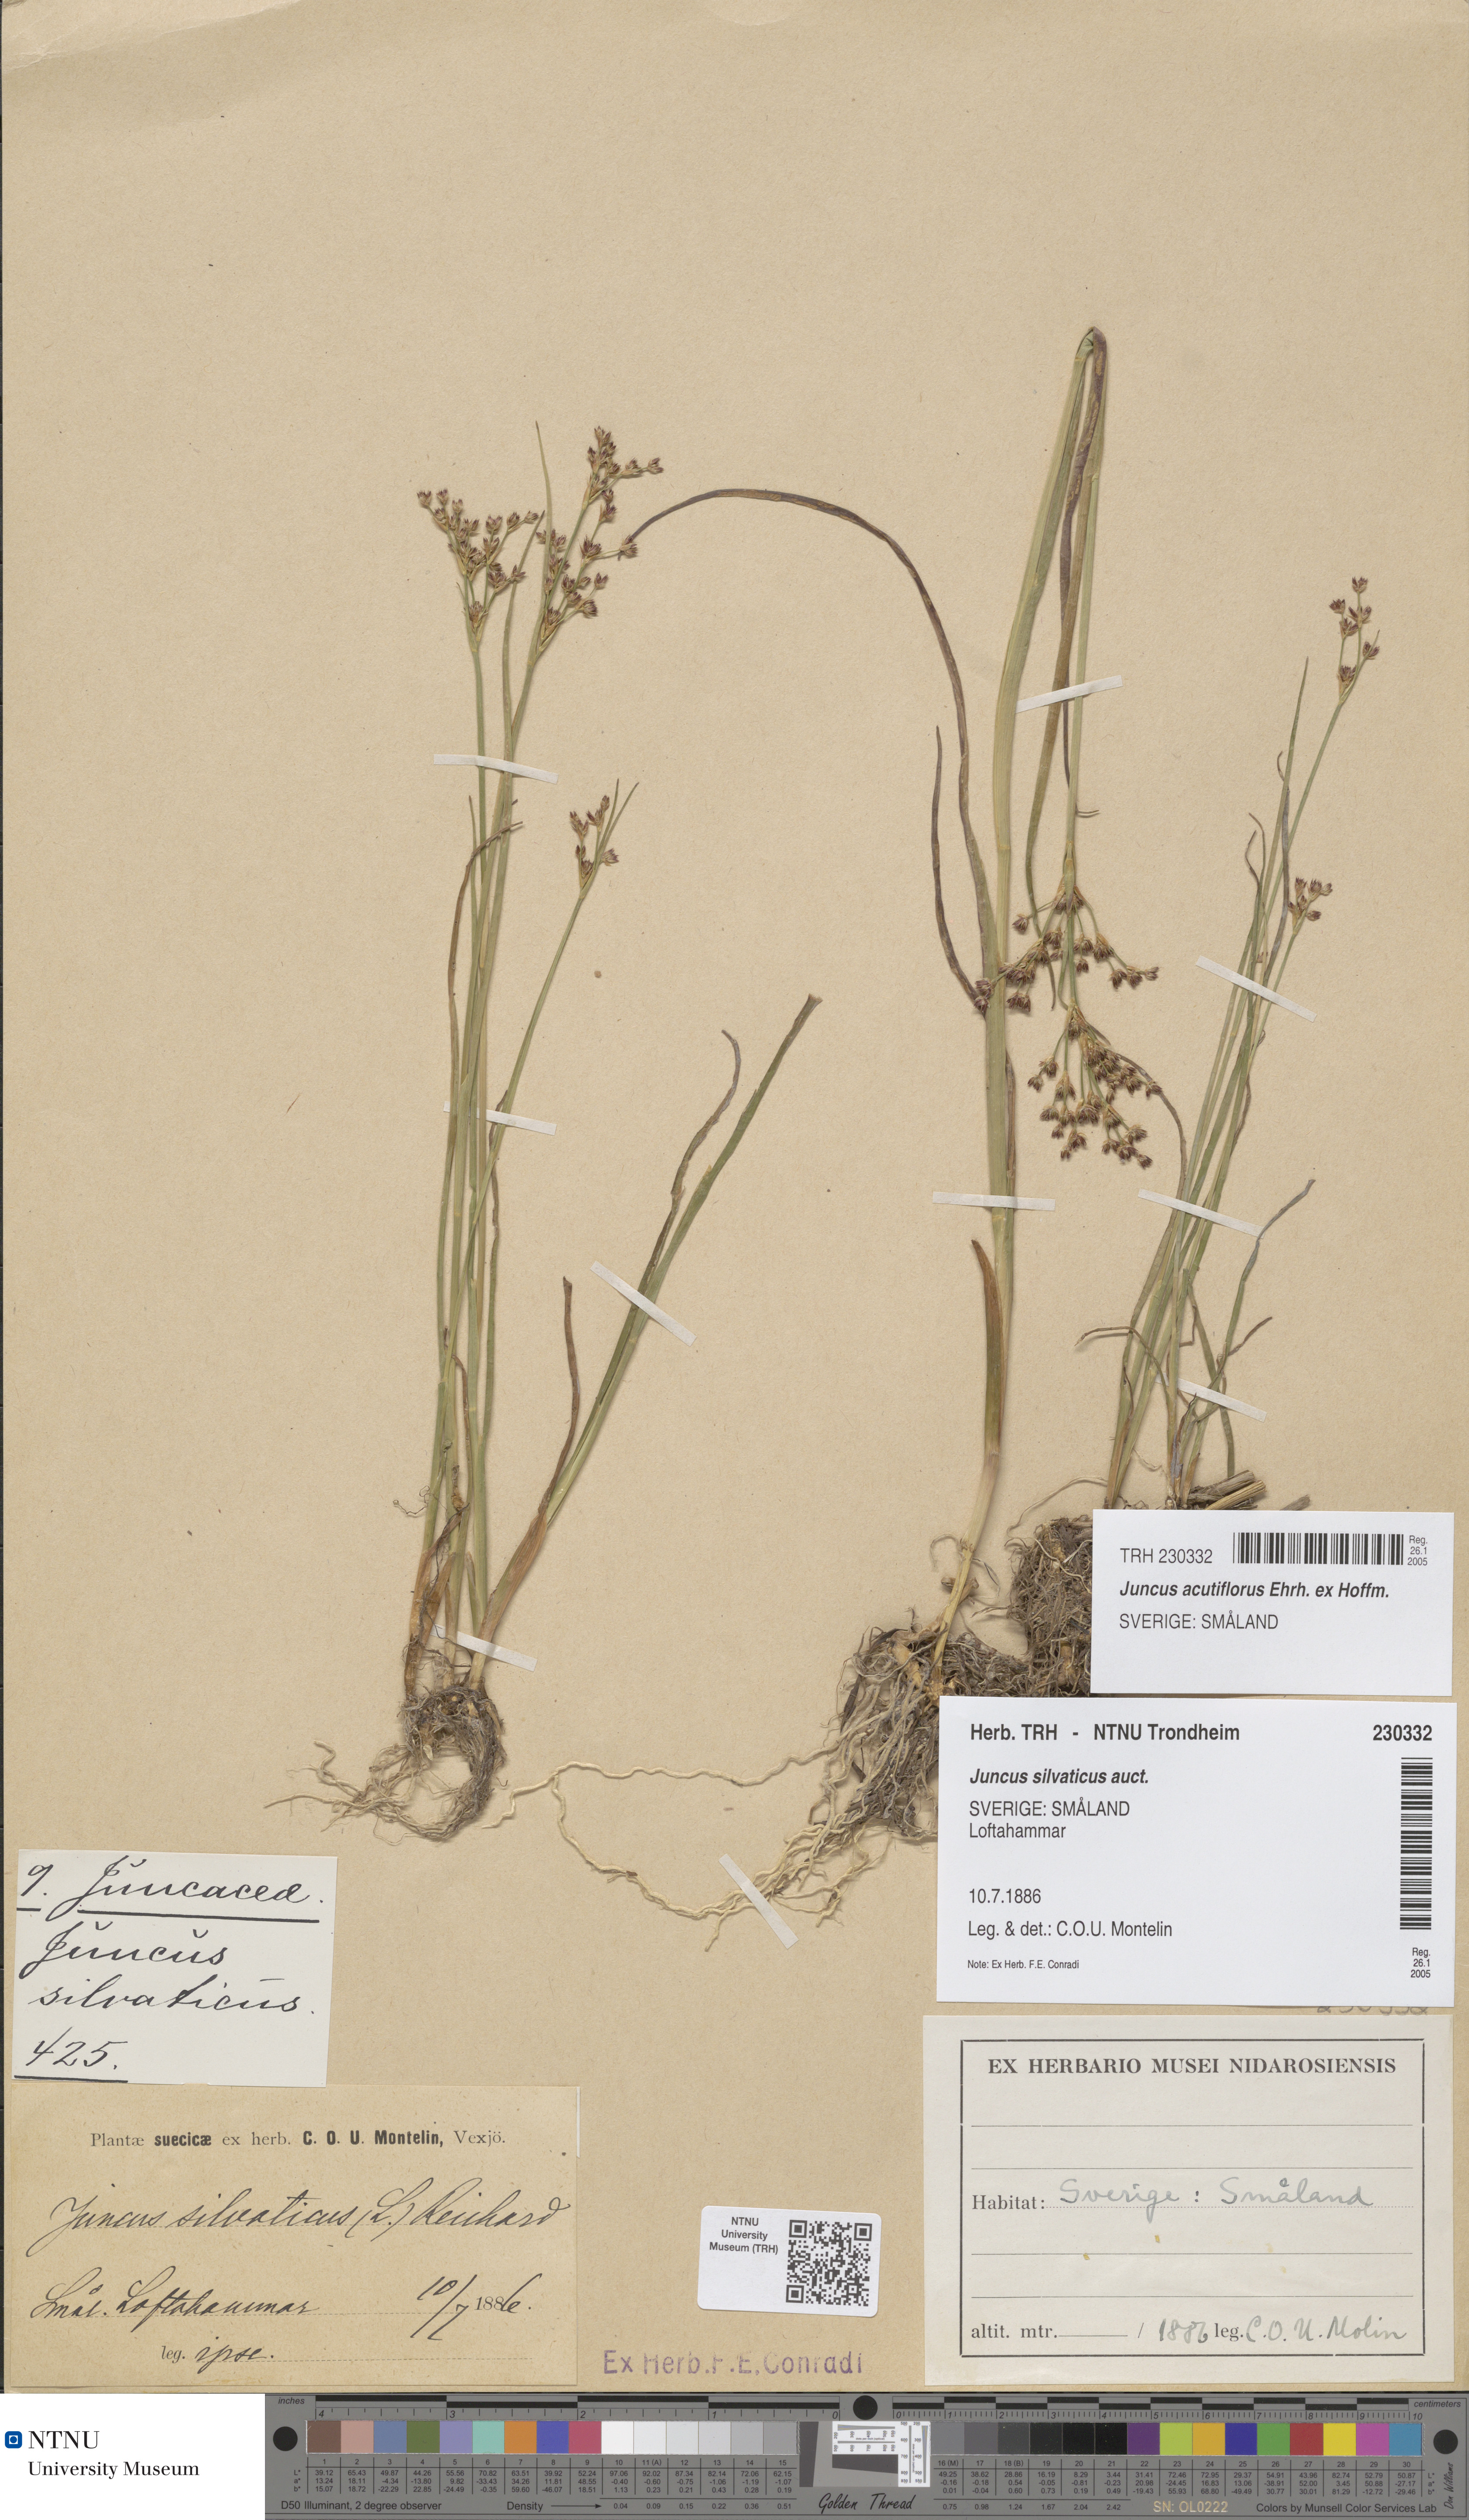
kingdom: Plantae
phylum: Tracheophyta
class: Liliopsida
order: Poales
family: Juncaceae
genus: Juncus
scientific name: Juncus acutiflorus
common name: Sharp-flowered rush
